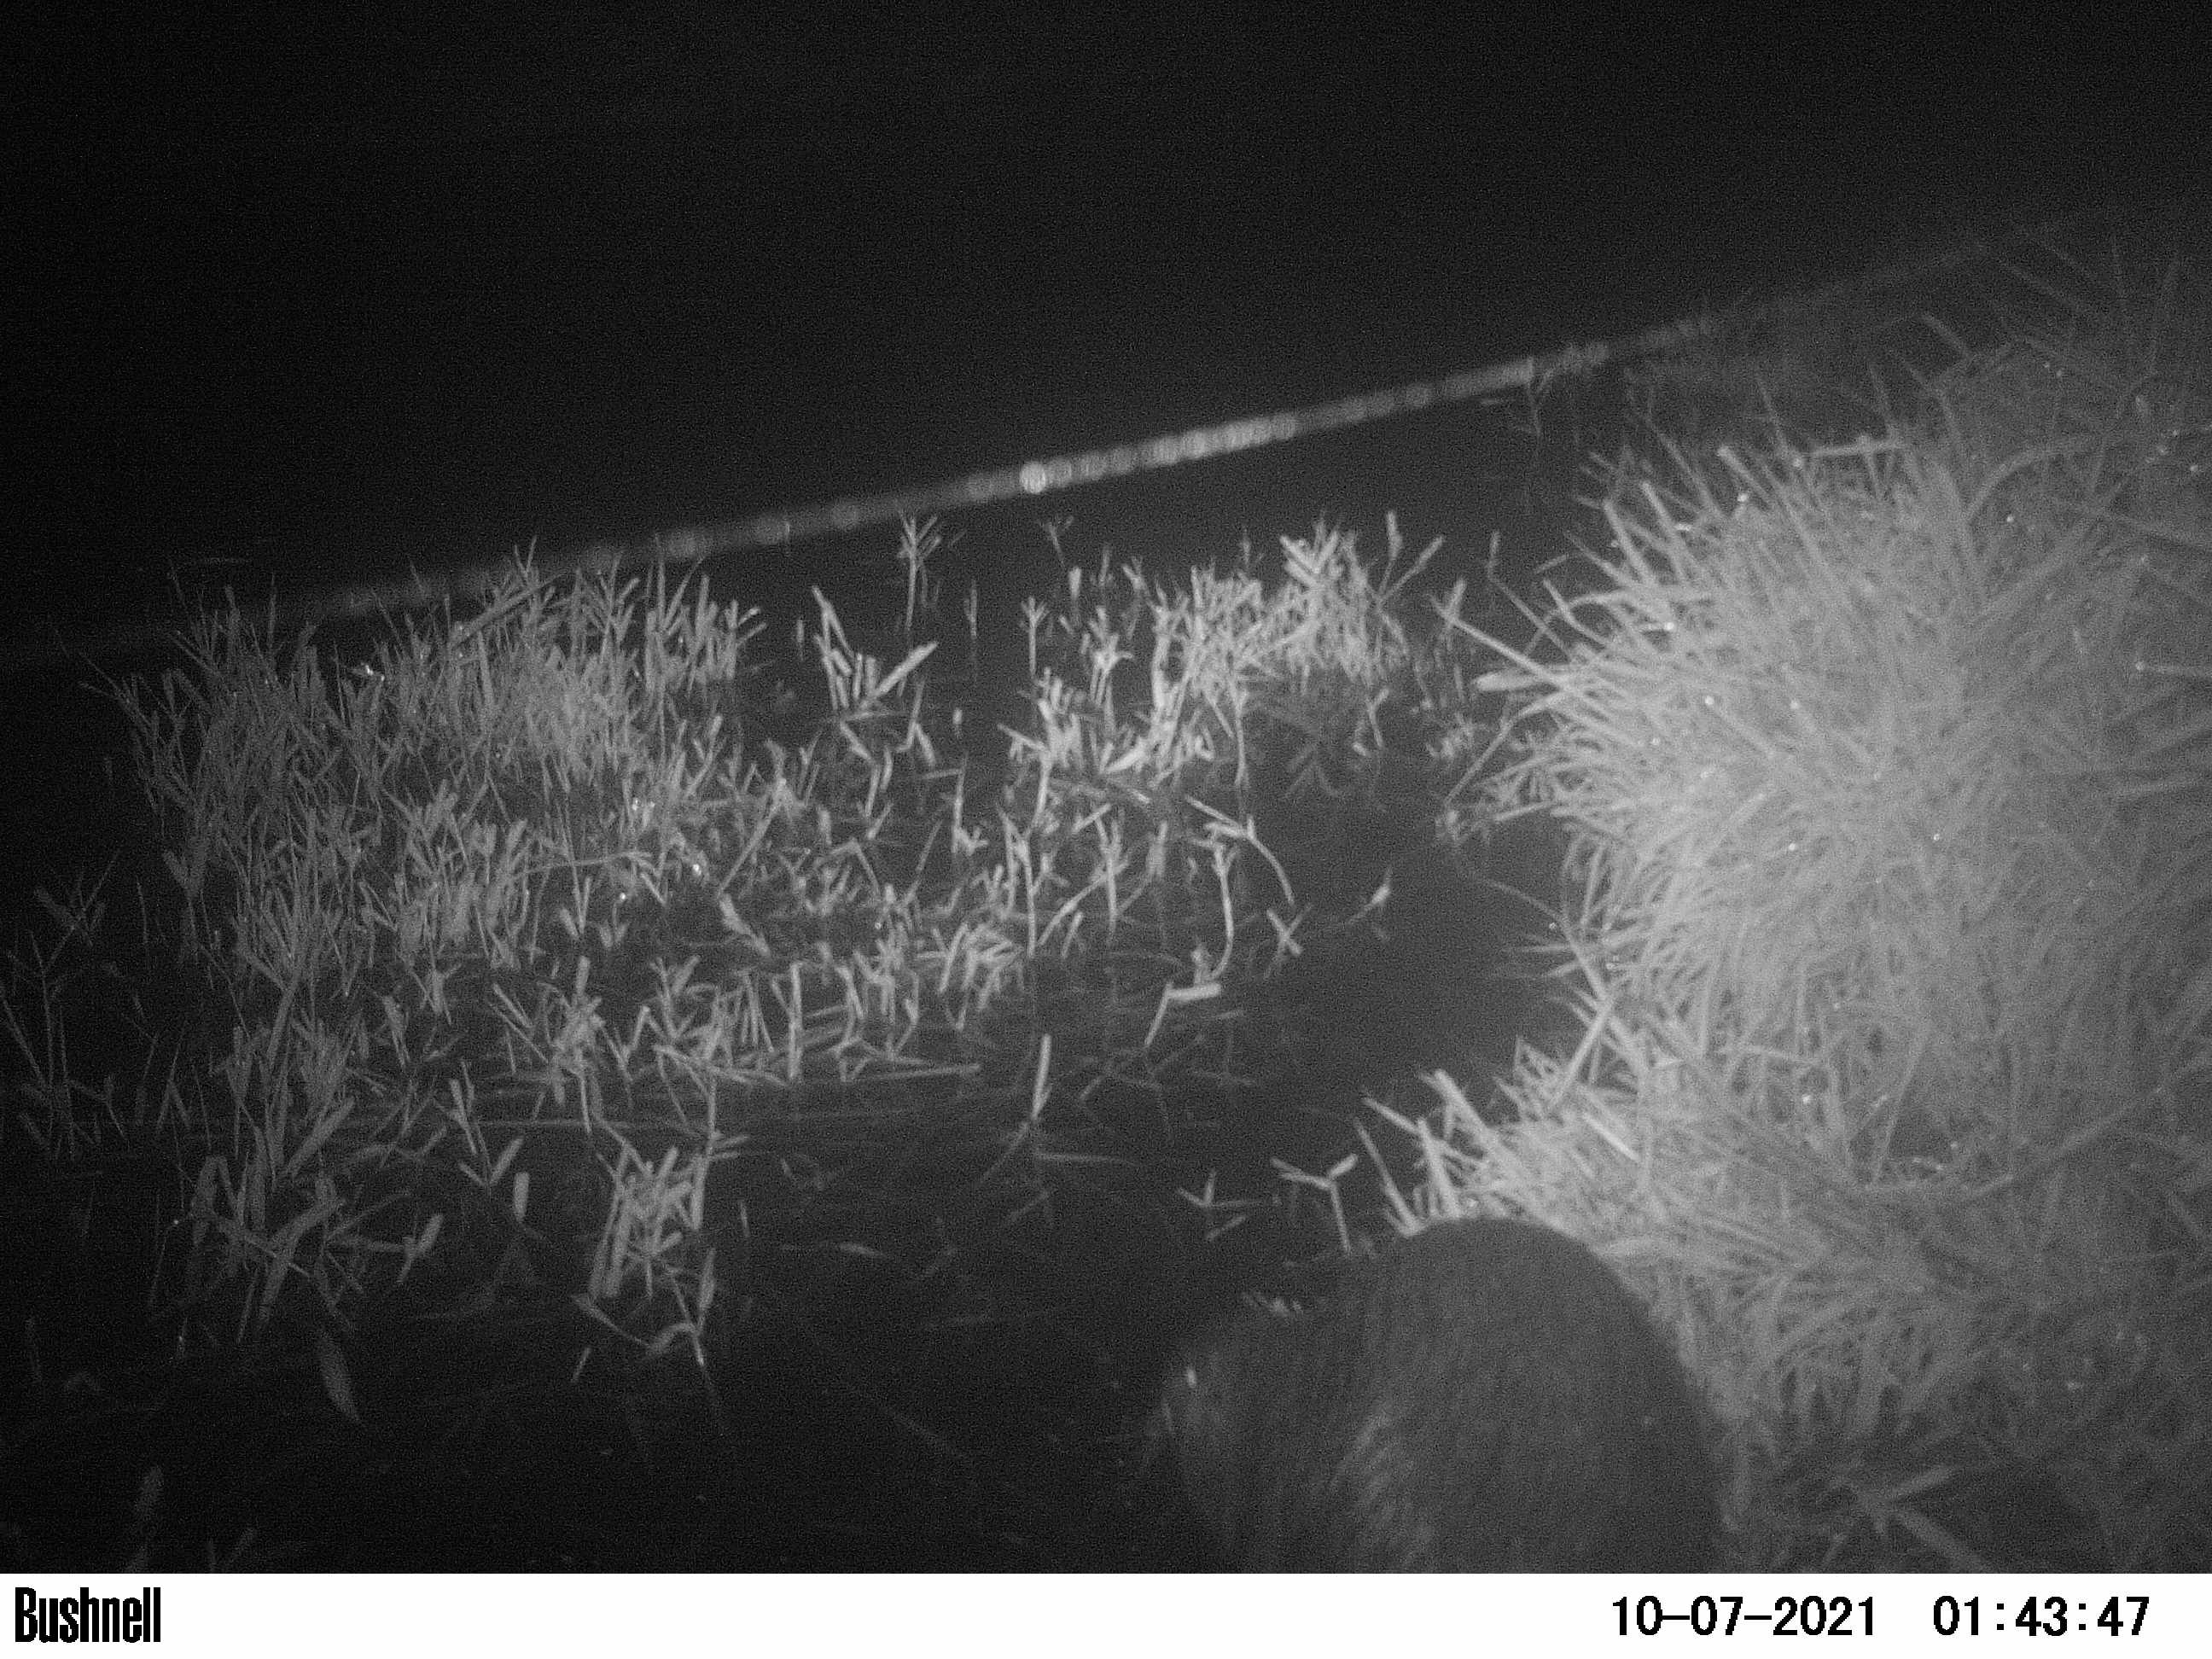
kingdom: Animalia
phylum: Chordata
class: Mammalia
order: Rodentia
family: Myocastoridae
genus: Myocastor
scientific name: Myocastor coypus
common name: Coypu
